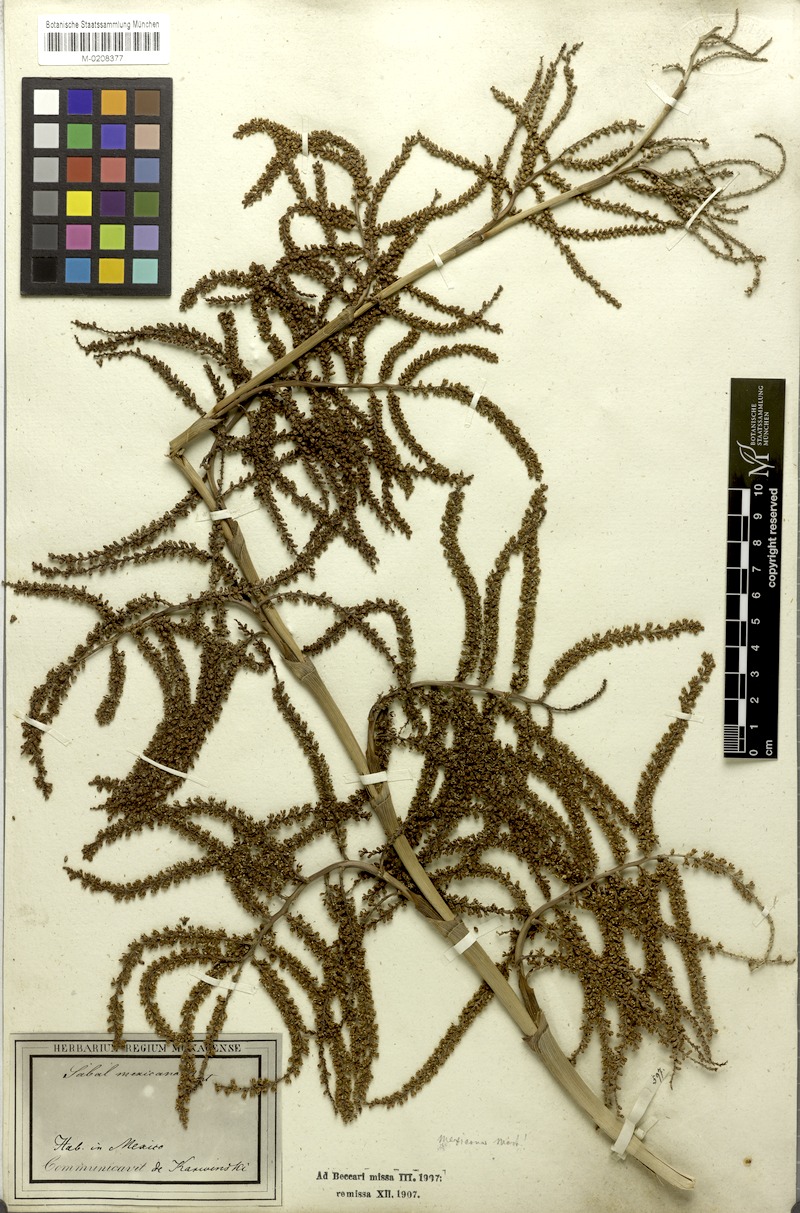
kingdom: Plantae
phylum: Tracheophyta
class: Liliopsida
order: Arecales
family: Arecaceae
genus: Sabal
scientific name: Sabal mexicana
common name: Texas palmetto
